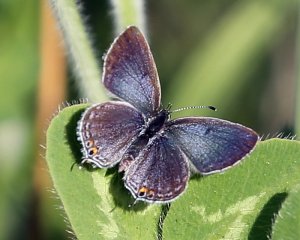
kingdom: Animalia
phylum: Arthropoda
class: Insecta
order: Lepidoptera
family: Lycaenidae
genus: Elkalyce
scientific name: Elkalyce comyntas
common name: Eastern Tailed-Blue
